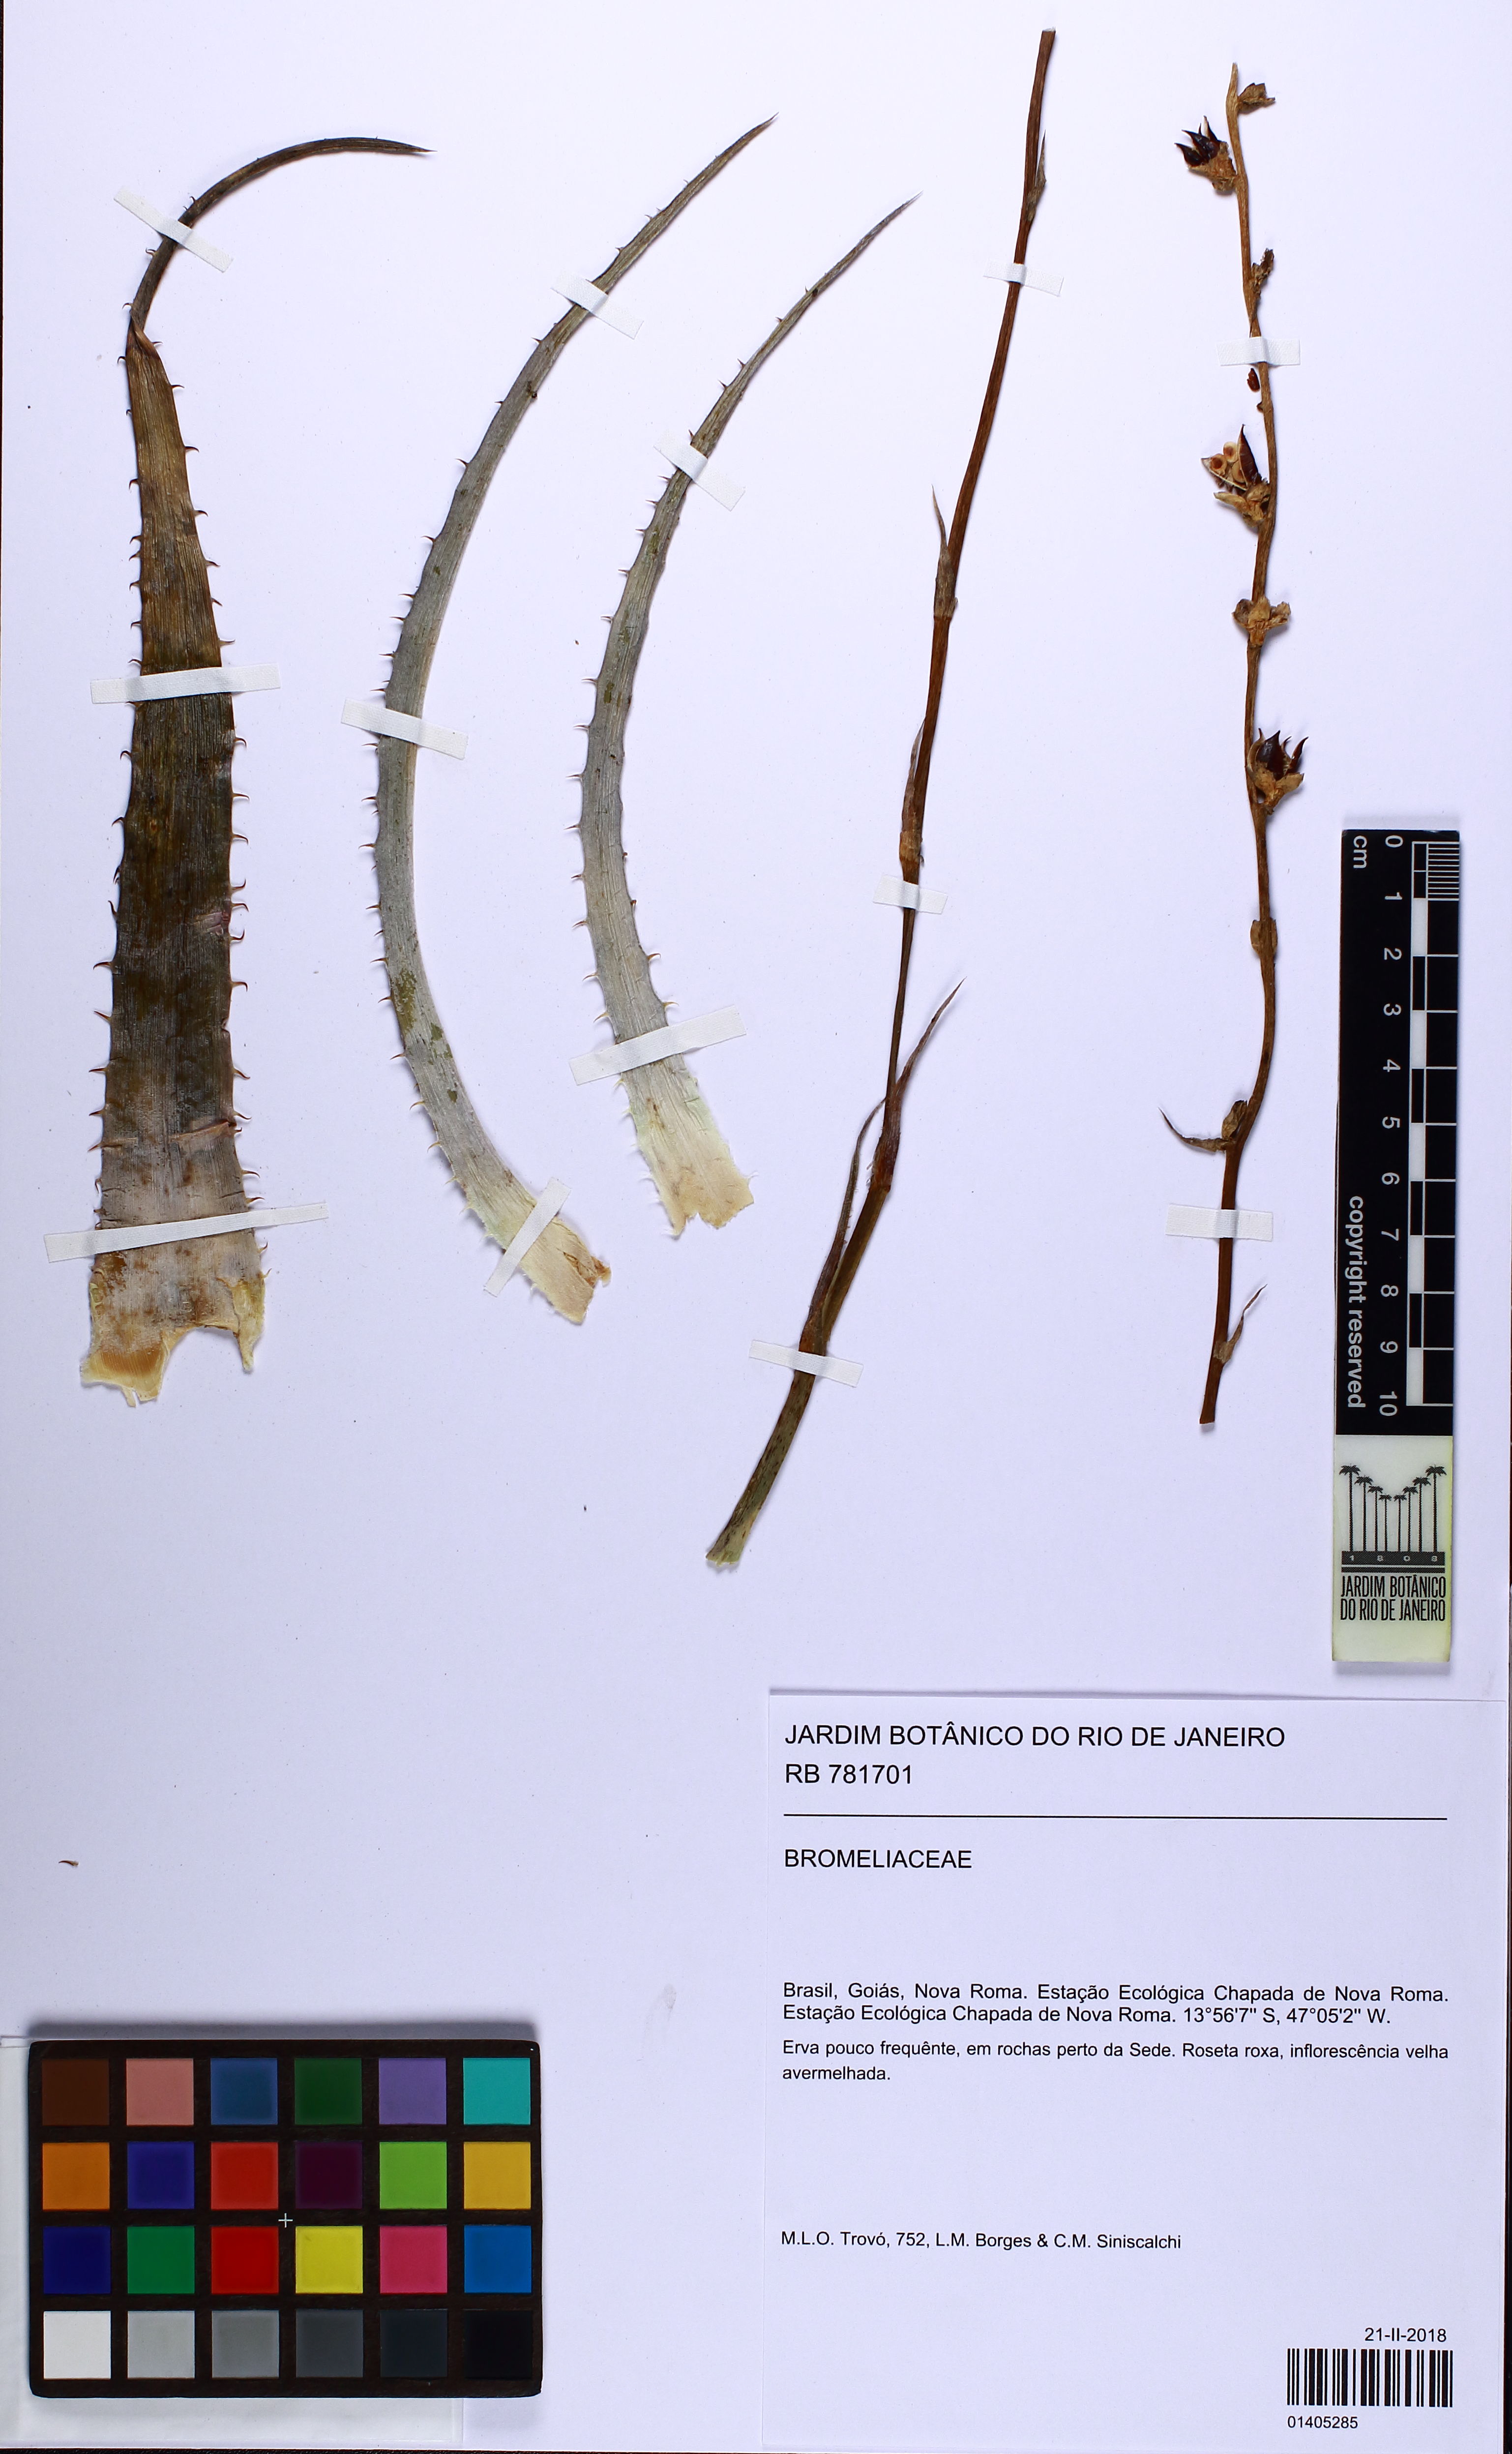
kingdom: Plantae
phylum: Tracheophyta
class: Liliopsida
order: Poales
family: Bromeliaceae
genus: Dyckia
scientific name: Dyckia
